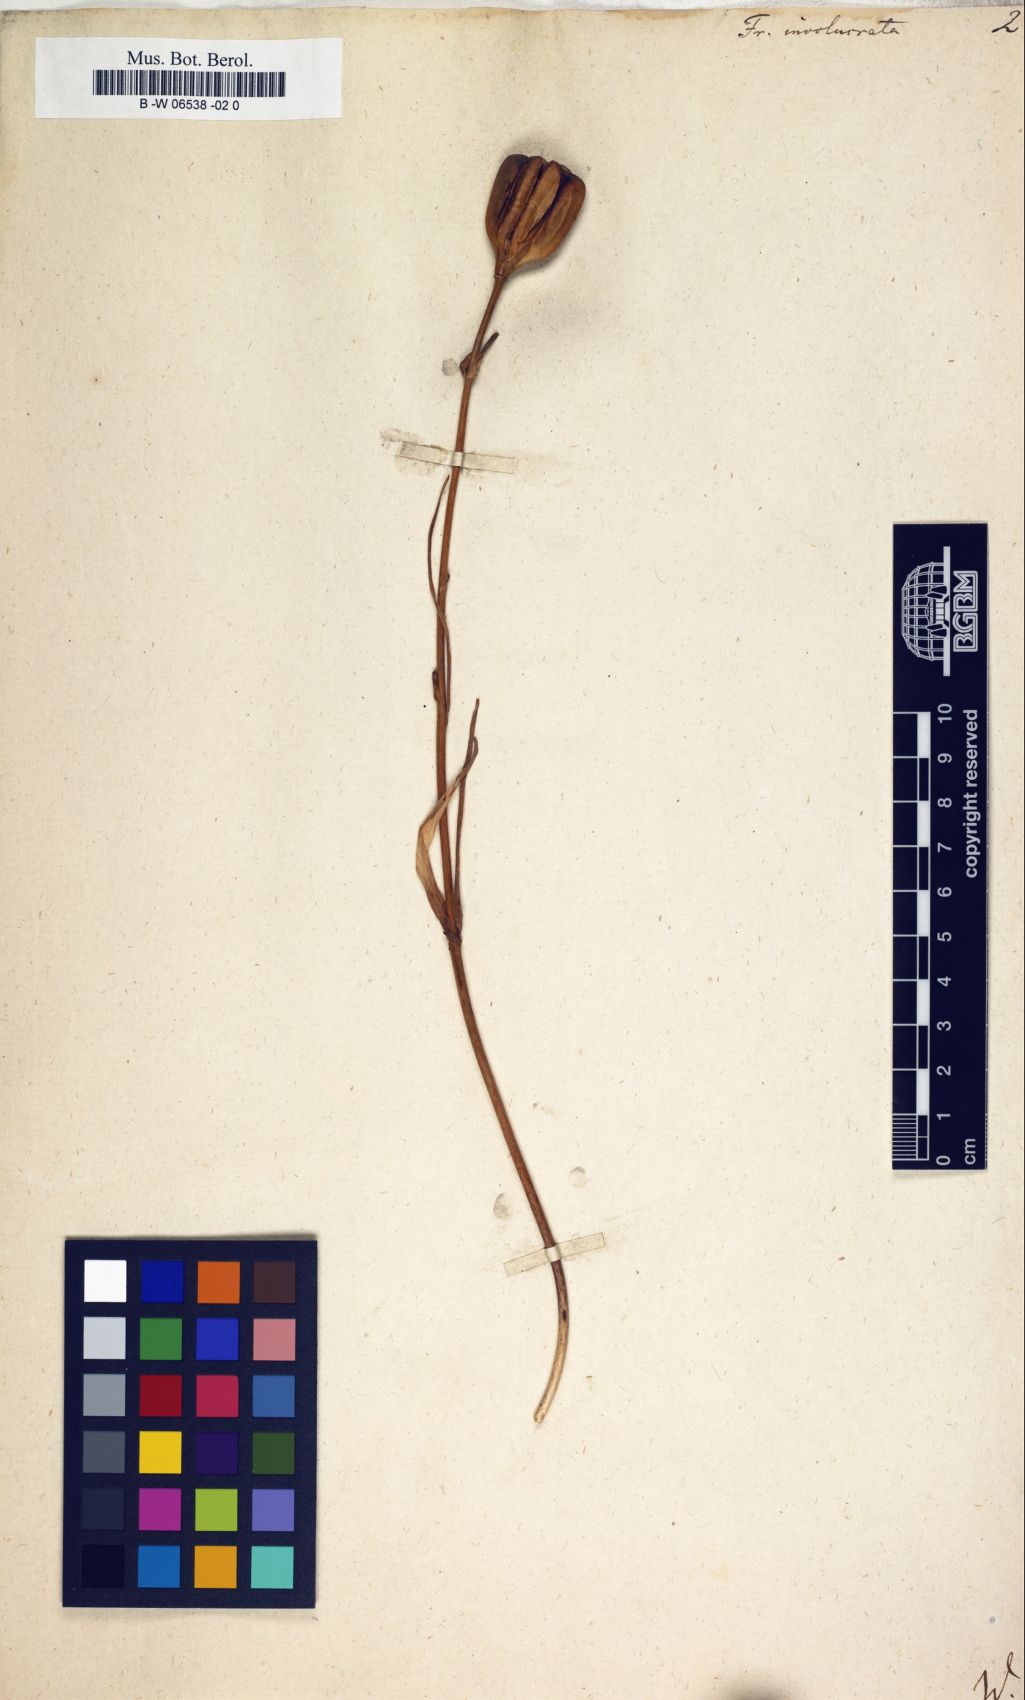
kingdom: Plantae
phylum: Tracheophyta
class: Liliopsida
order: Liliales
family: Liliaceae
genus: Fritillaria
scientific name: Fritillaria involucrata
